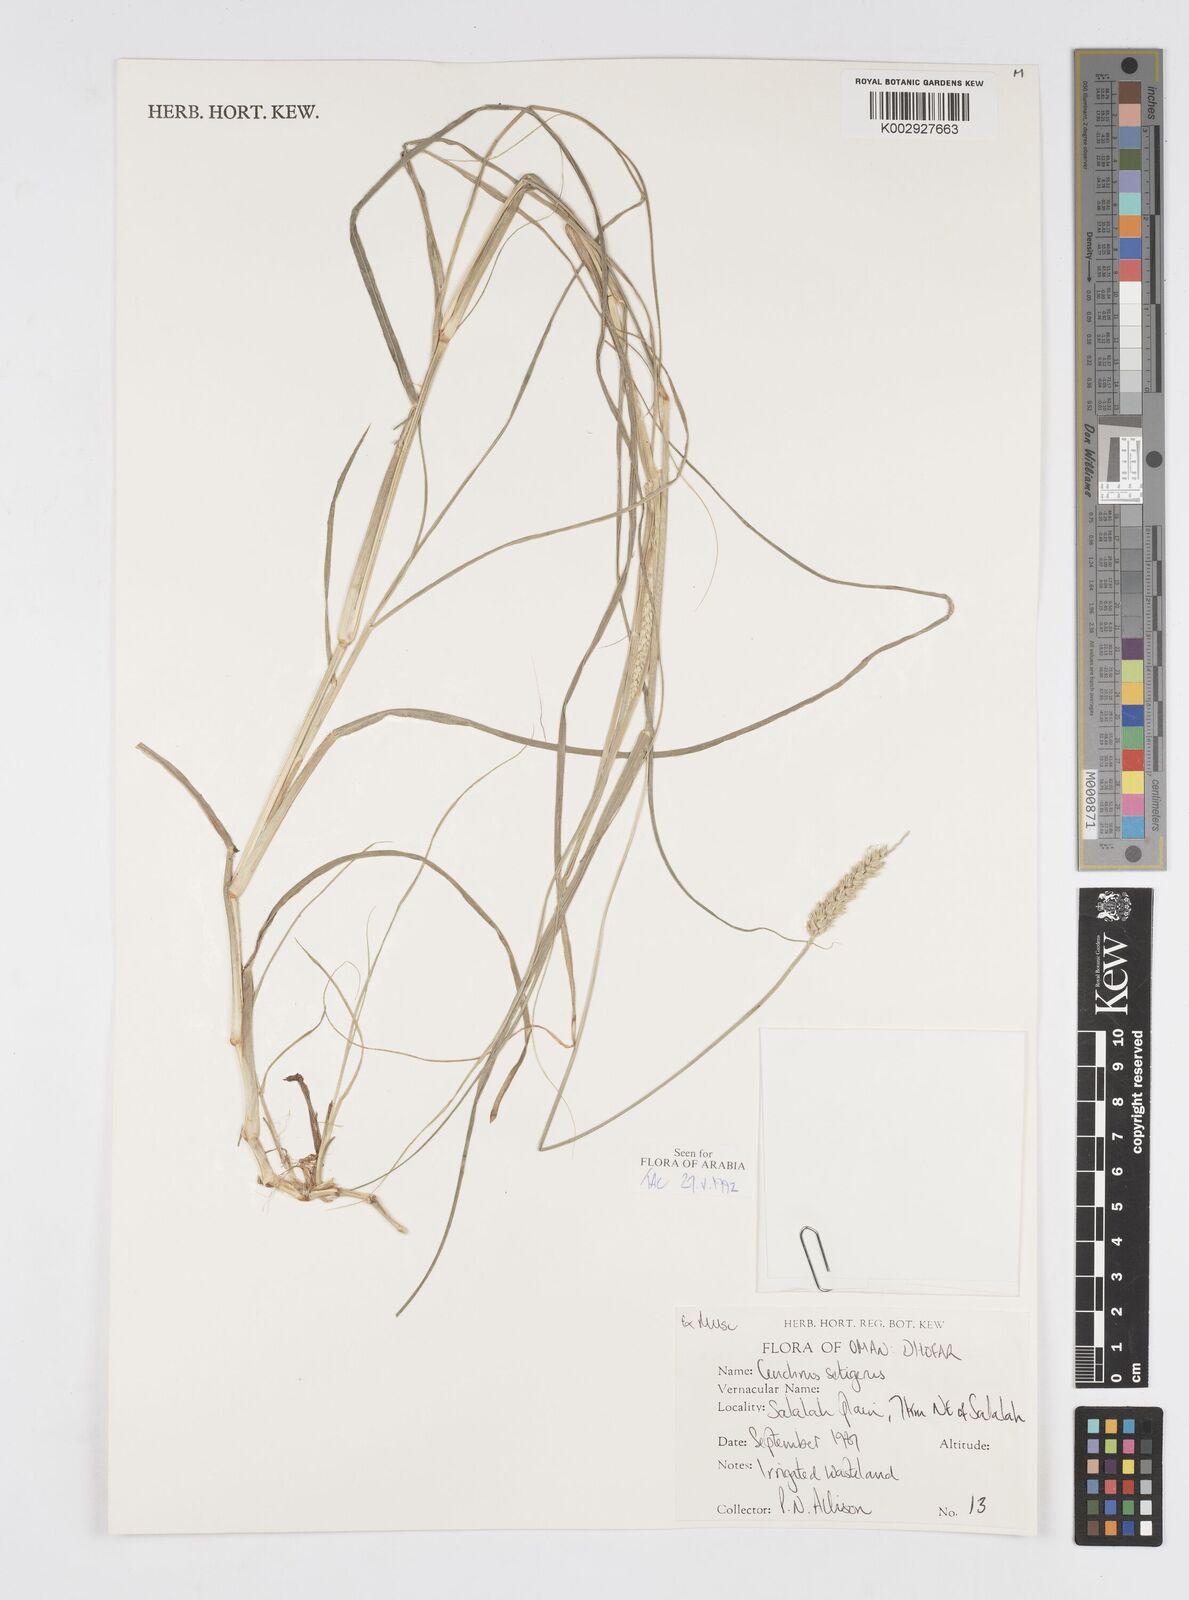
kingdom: Plantae
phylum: Tracheophyta
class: Liliopsida
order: Poales
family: Poaceae
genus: Cenchrus
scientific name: Cenchrus setigerus
